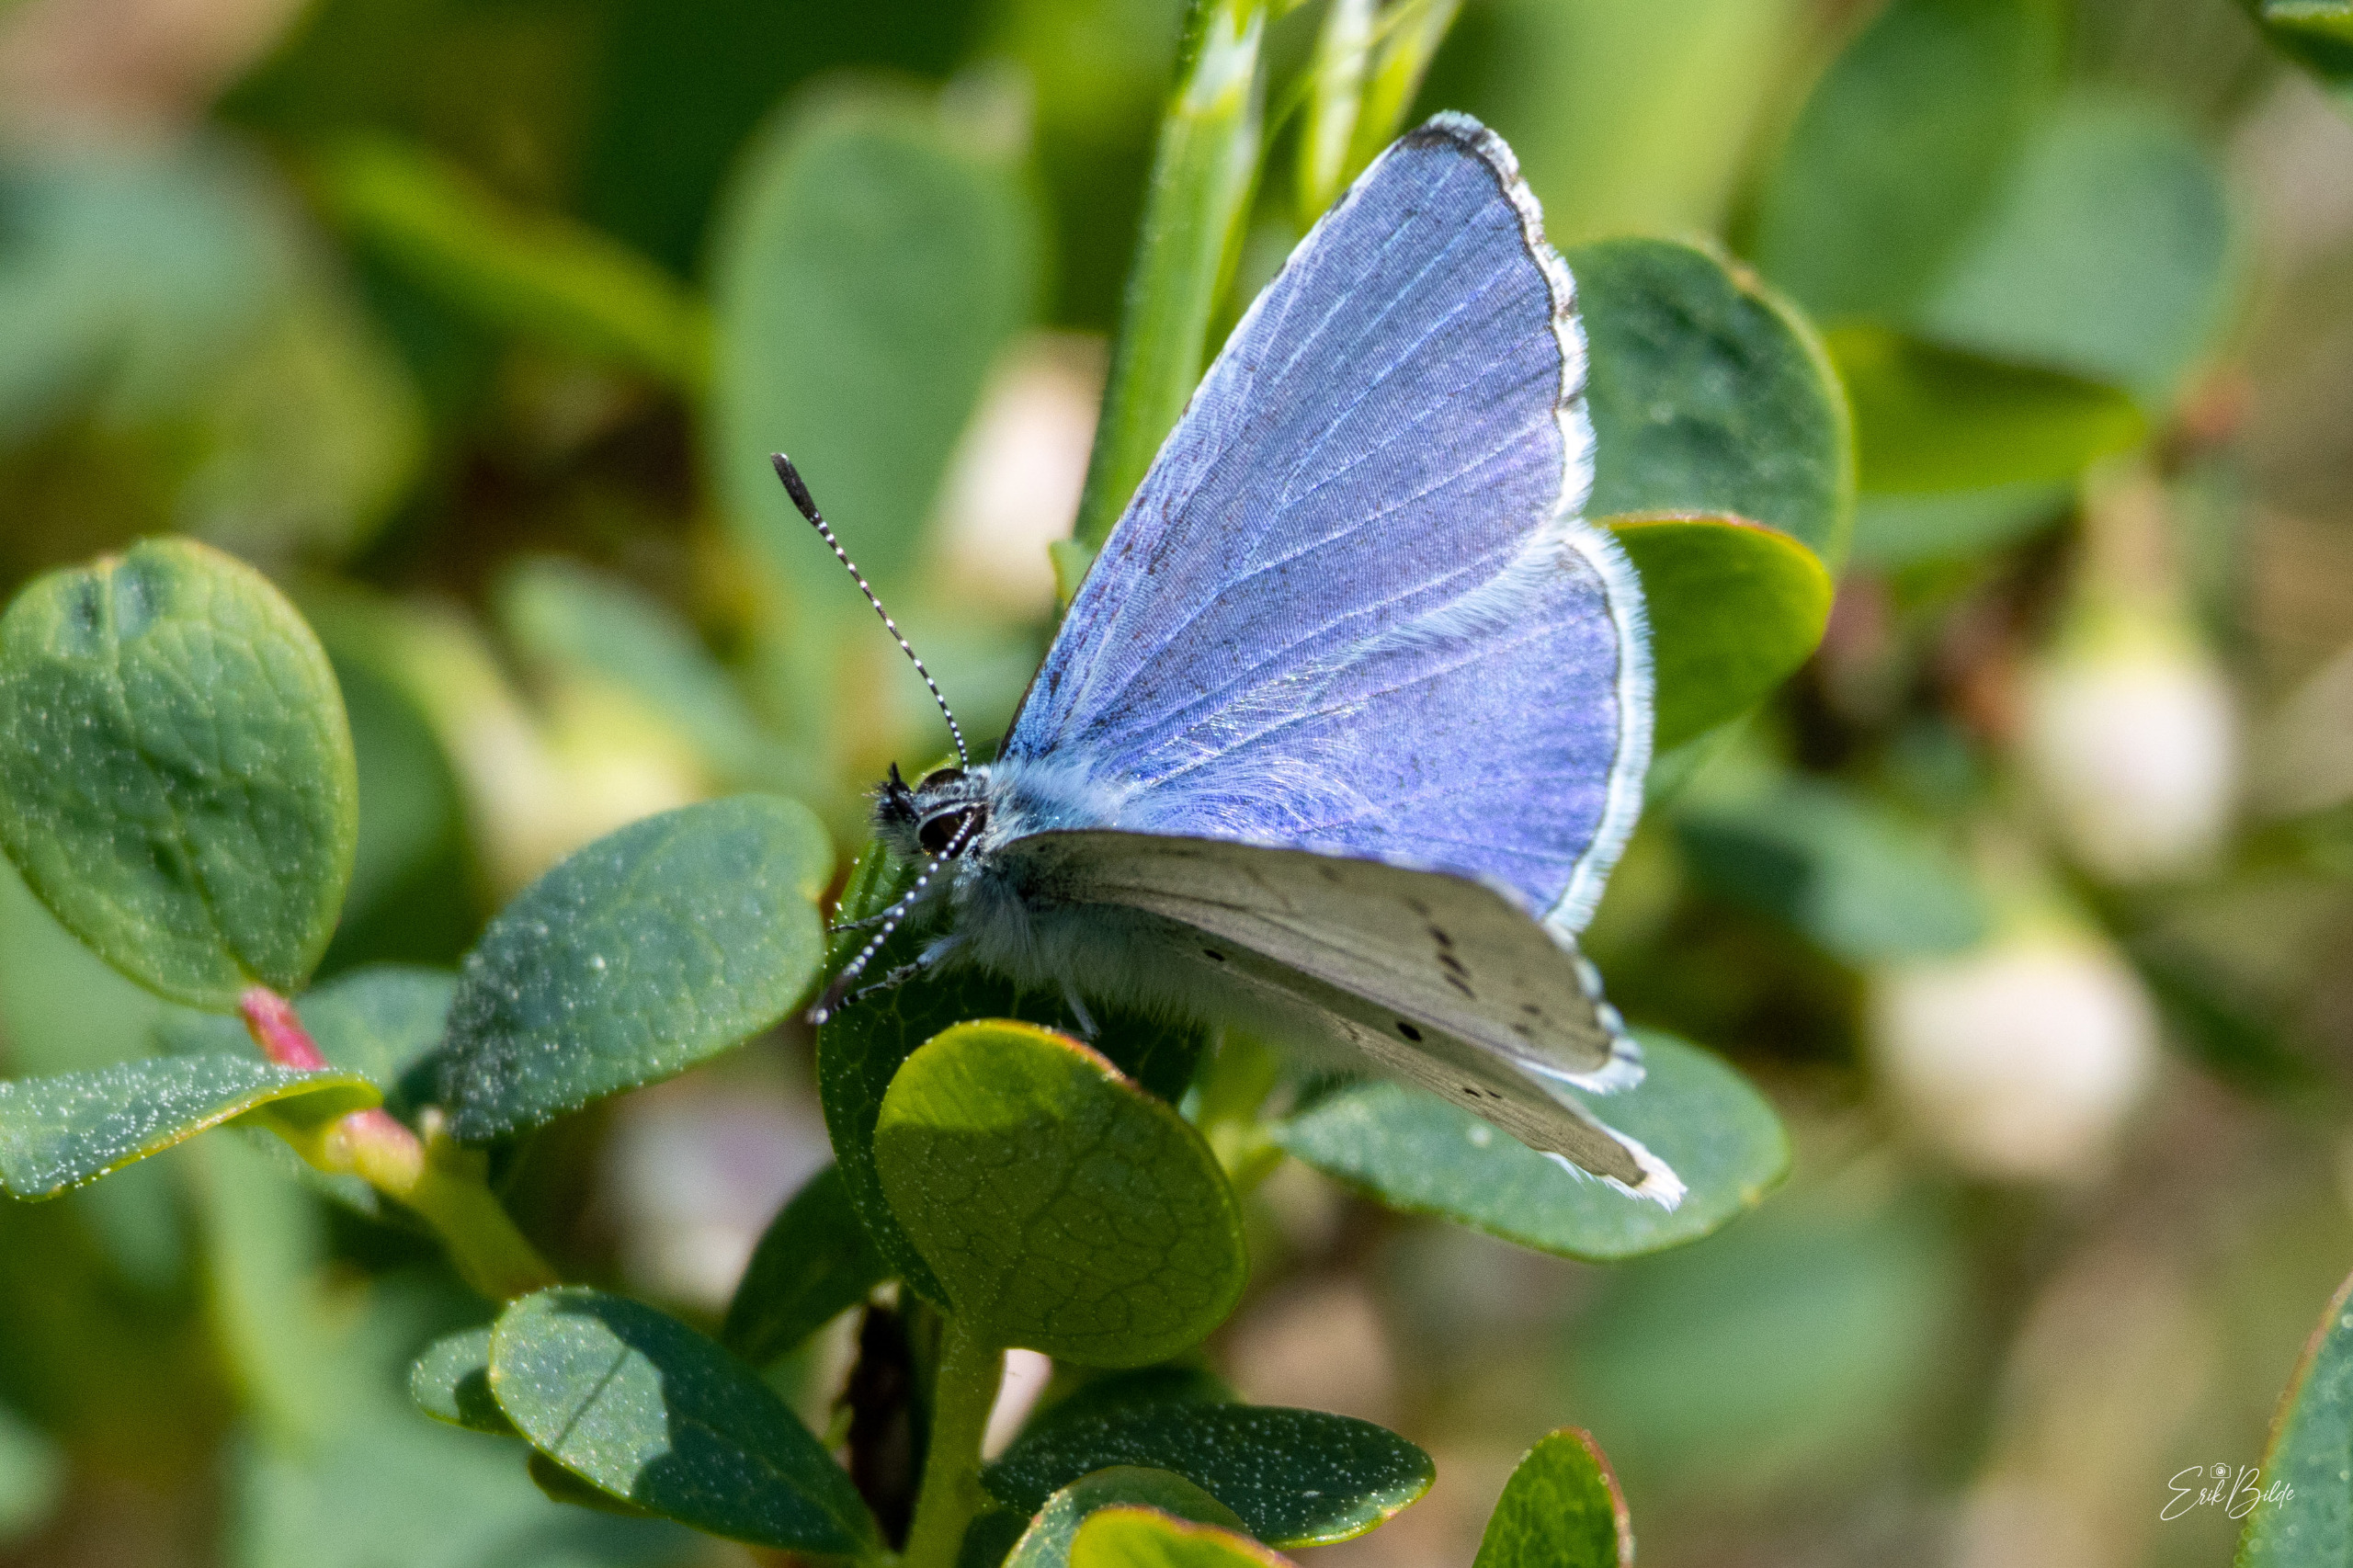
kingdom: Animalia
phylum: Arthropoda
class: Insecta
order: Lepidoptera
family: Lycaenidae
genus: Celastrina
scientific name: Celastrina argiolus
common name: Skovblåfugl
